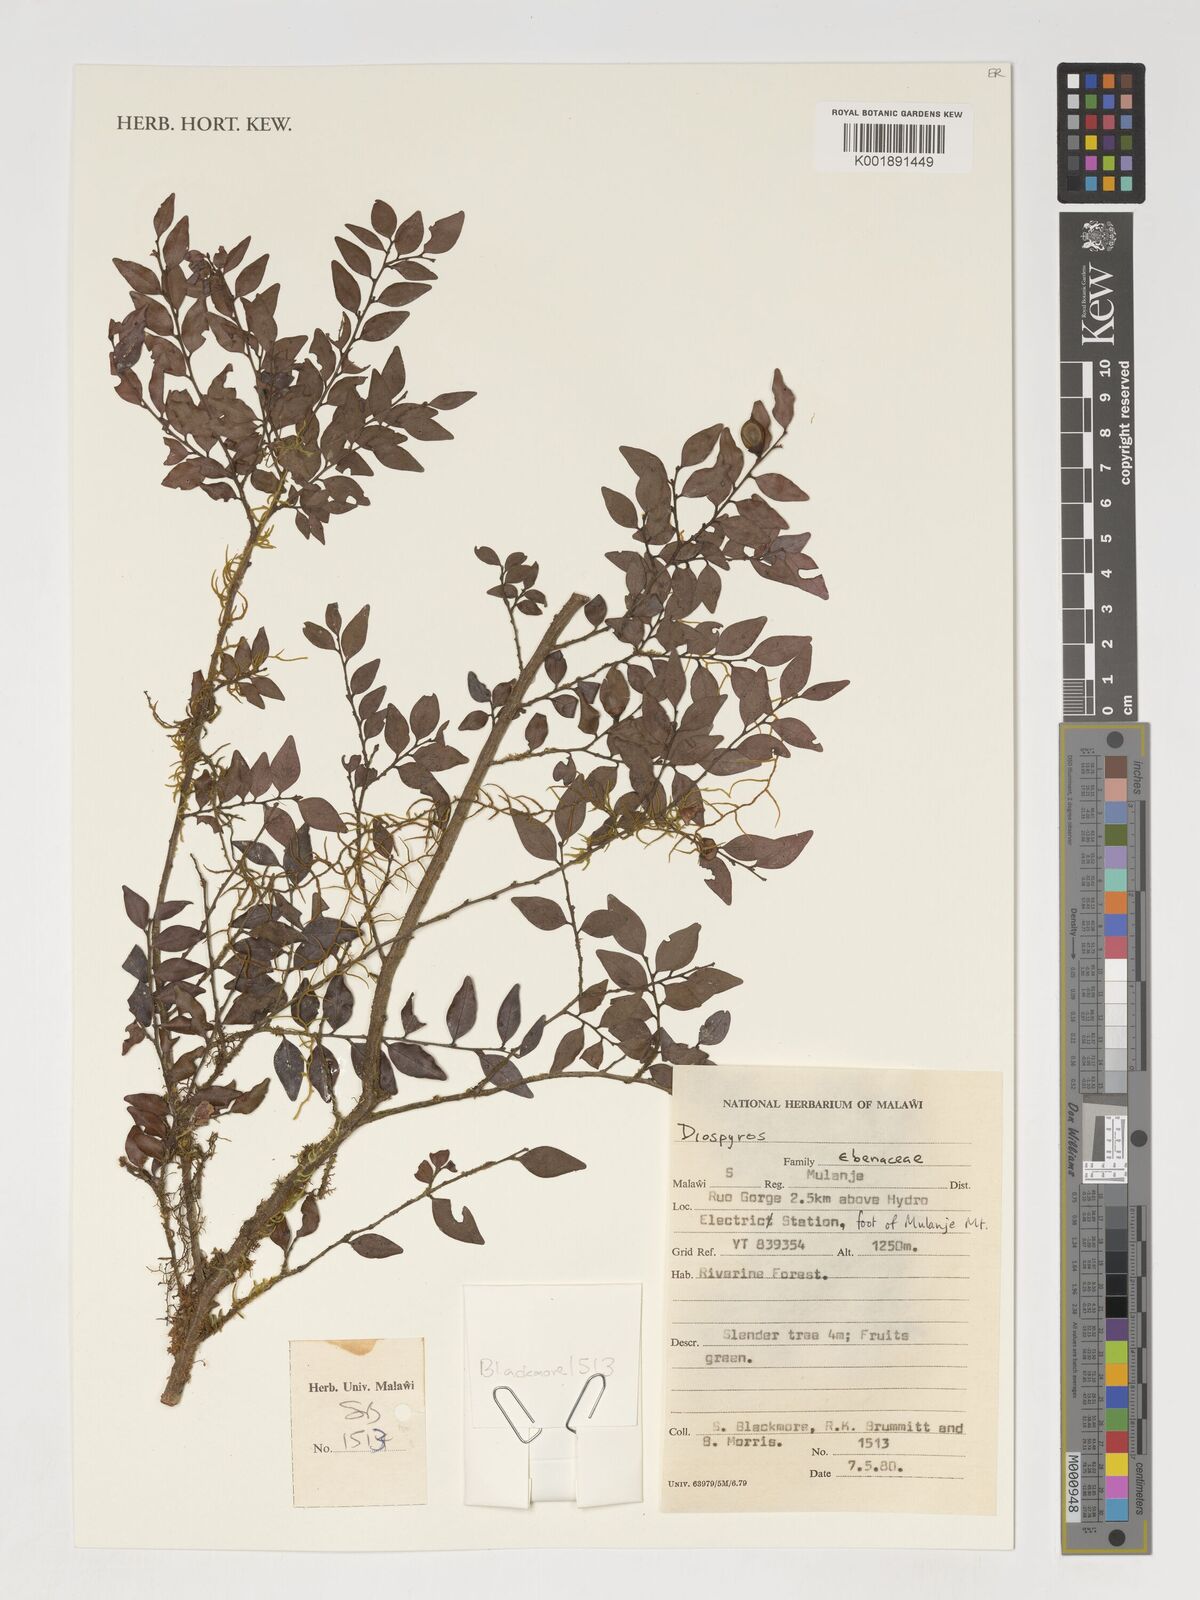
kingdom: Plantae
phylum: Tracheophyta
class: Magnoliopsida
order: Ericales
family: Ebenaceae
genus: Diospyros
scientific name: Diospyros
